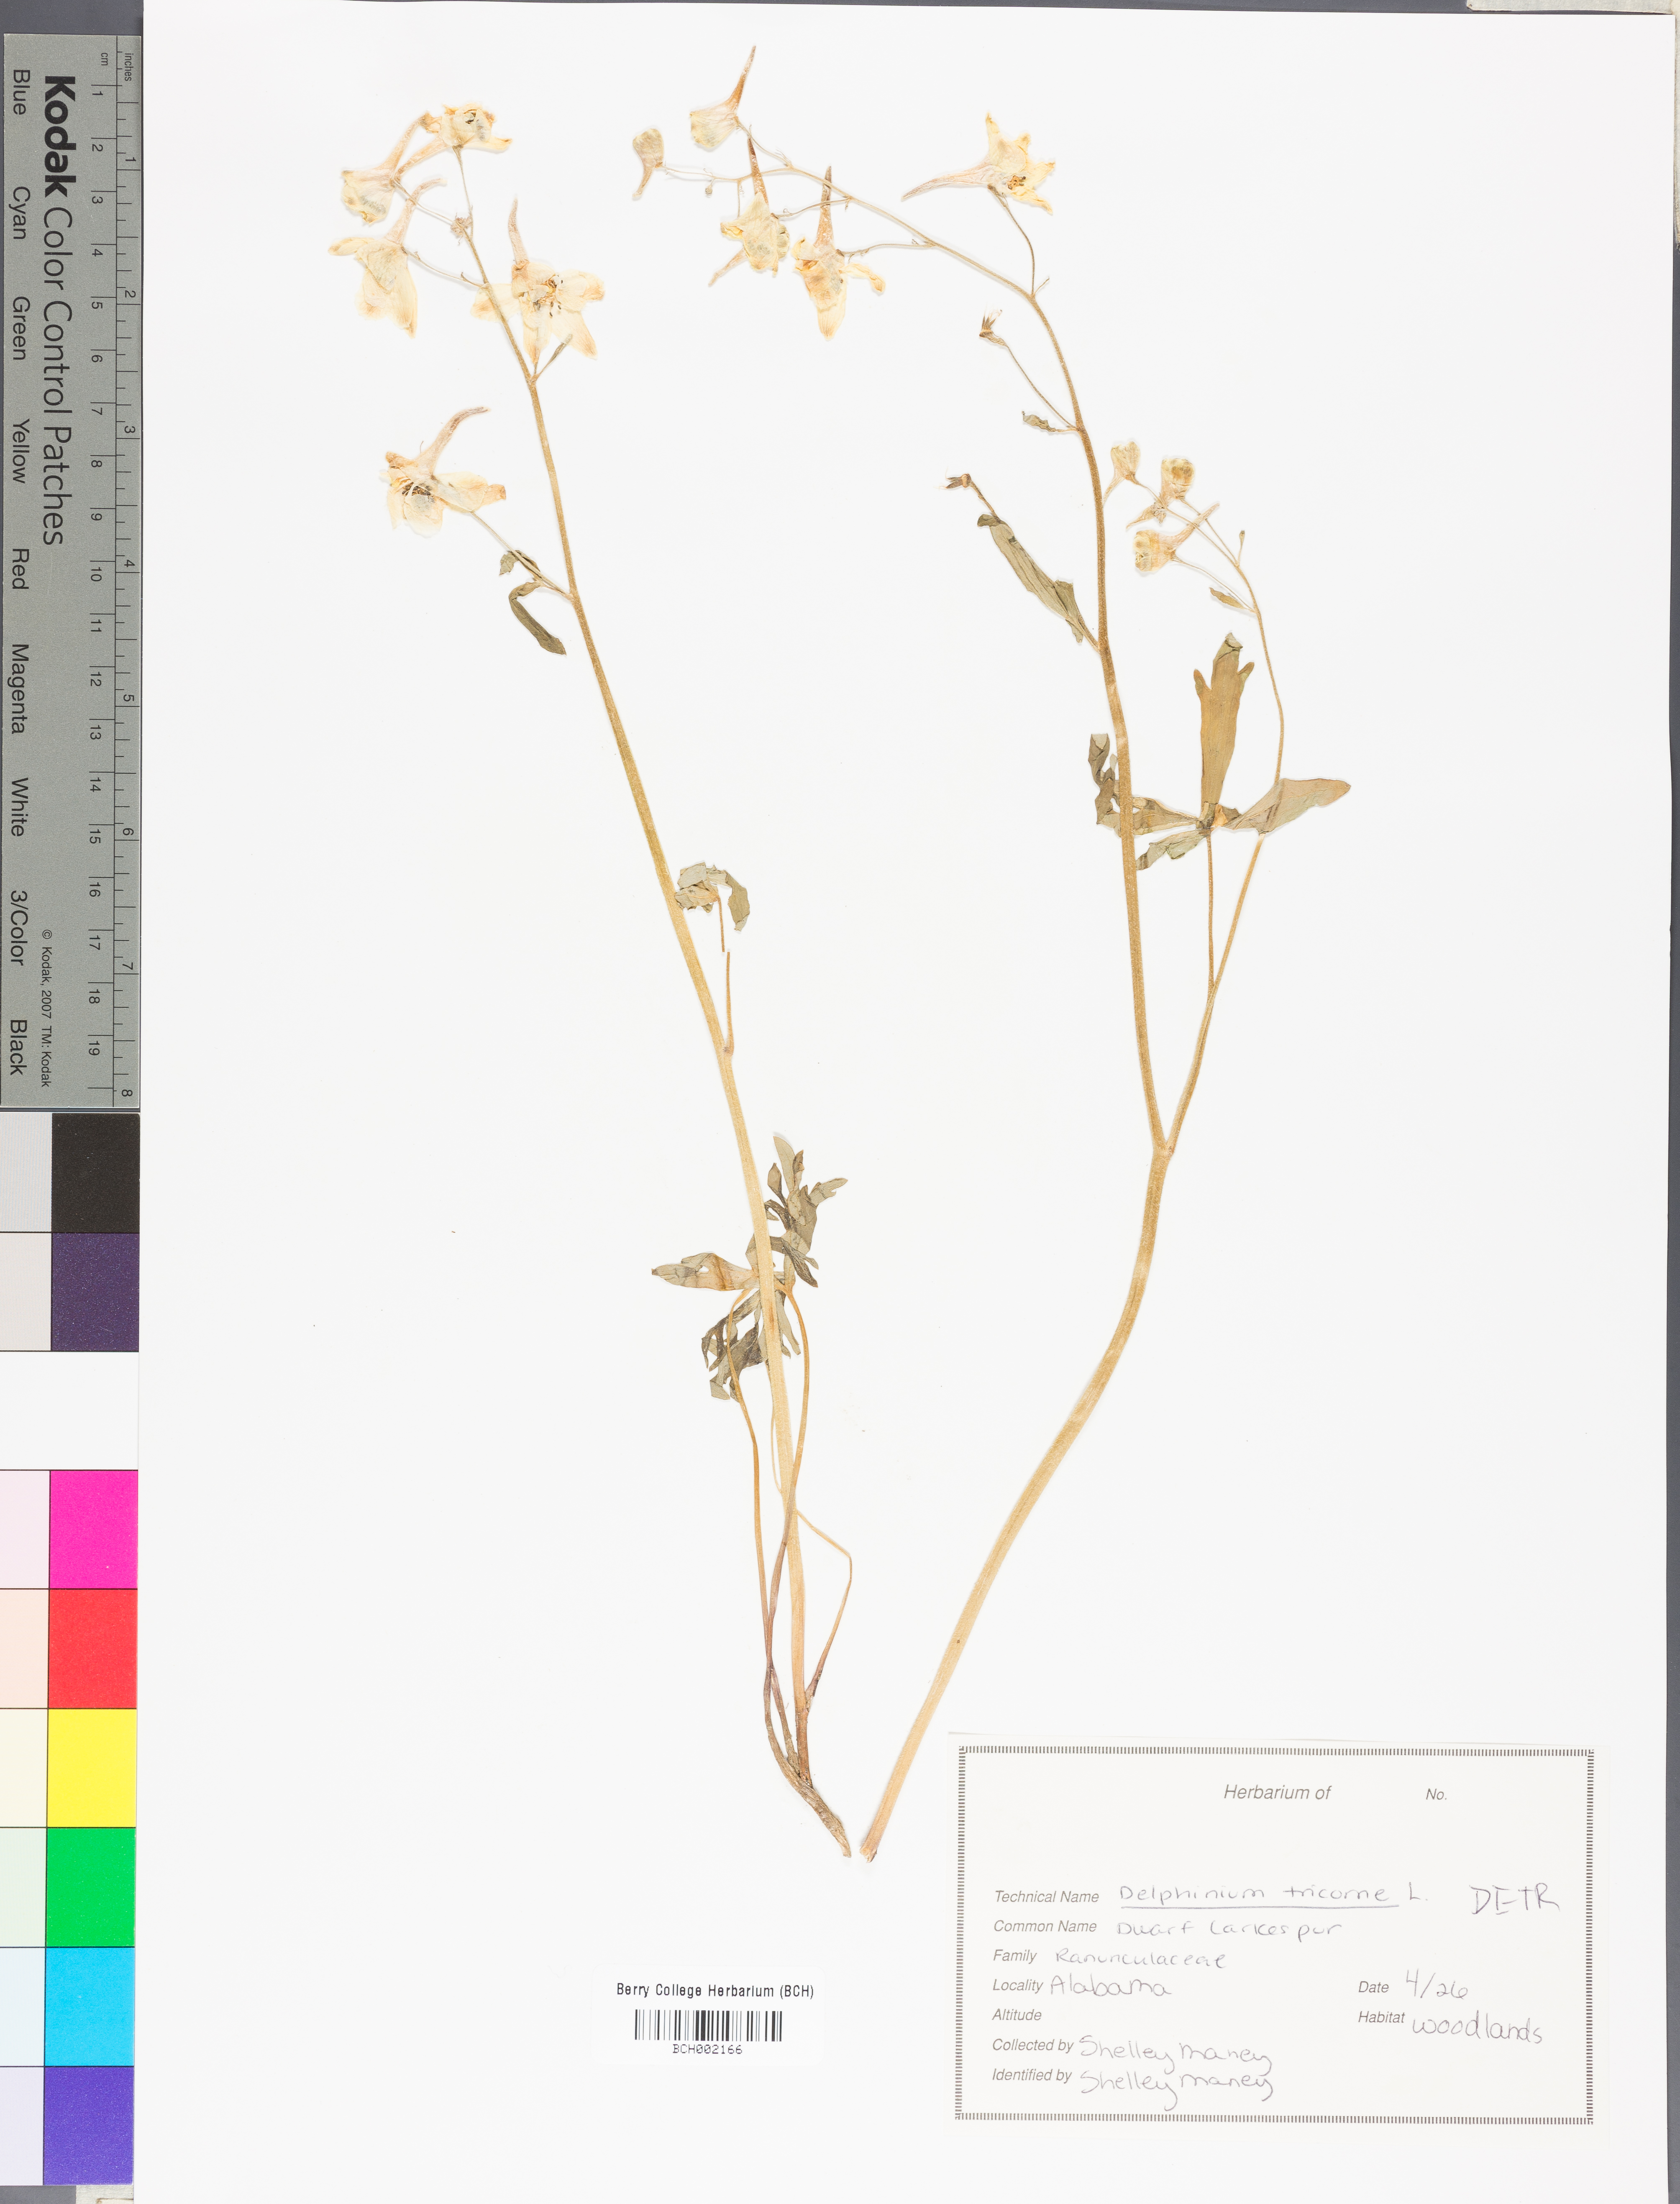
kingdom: Plantae
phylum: Tracheophyta
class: Magnoliopsida
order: Ranunculales
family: Ranunculaceae
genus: Delphinium
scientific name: Delphinium tricorne
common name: Dwarf larkspur
